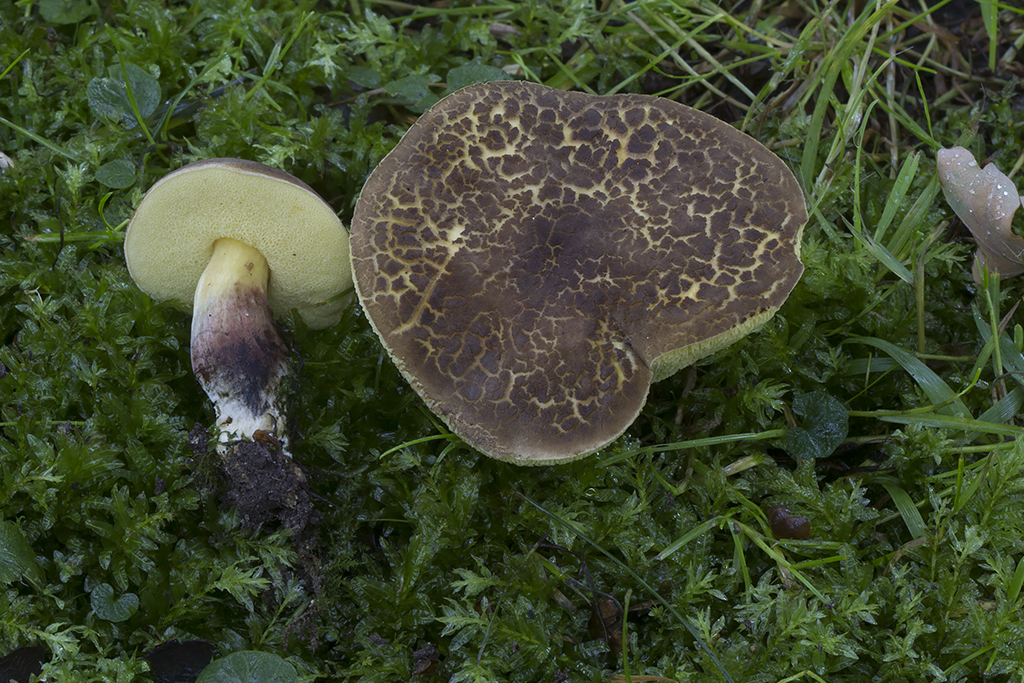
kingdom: Fungi
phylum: Basidiomycota
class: Agaricomycetes
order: Boletales
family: Boletaceae
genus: Xerocomellus
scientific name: Xerocomellus porosporus
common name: hvidsprukken rørhat
